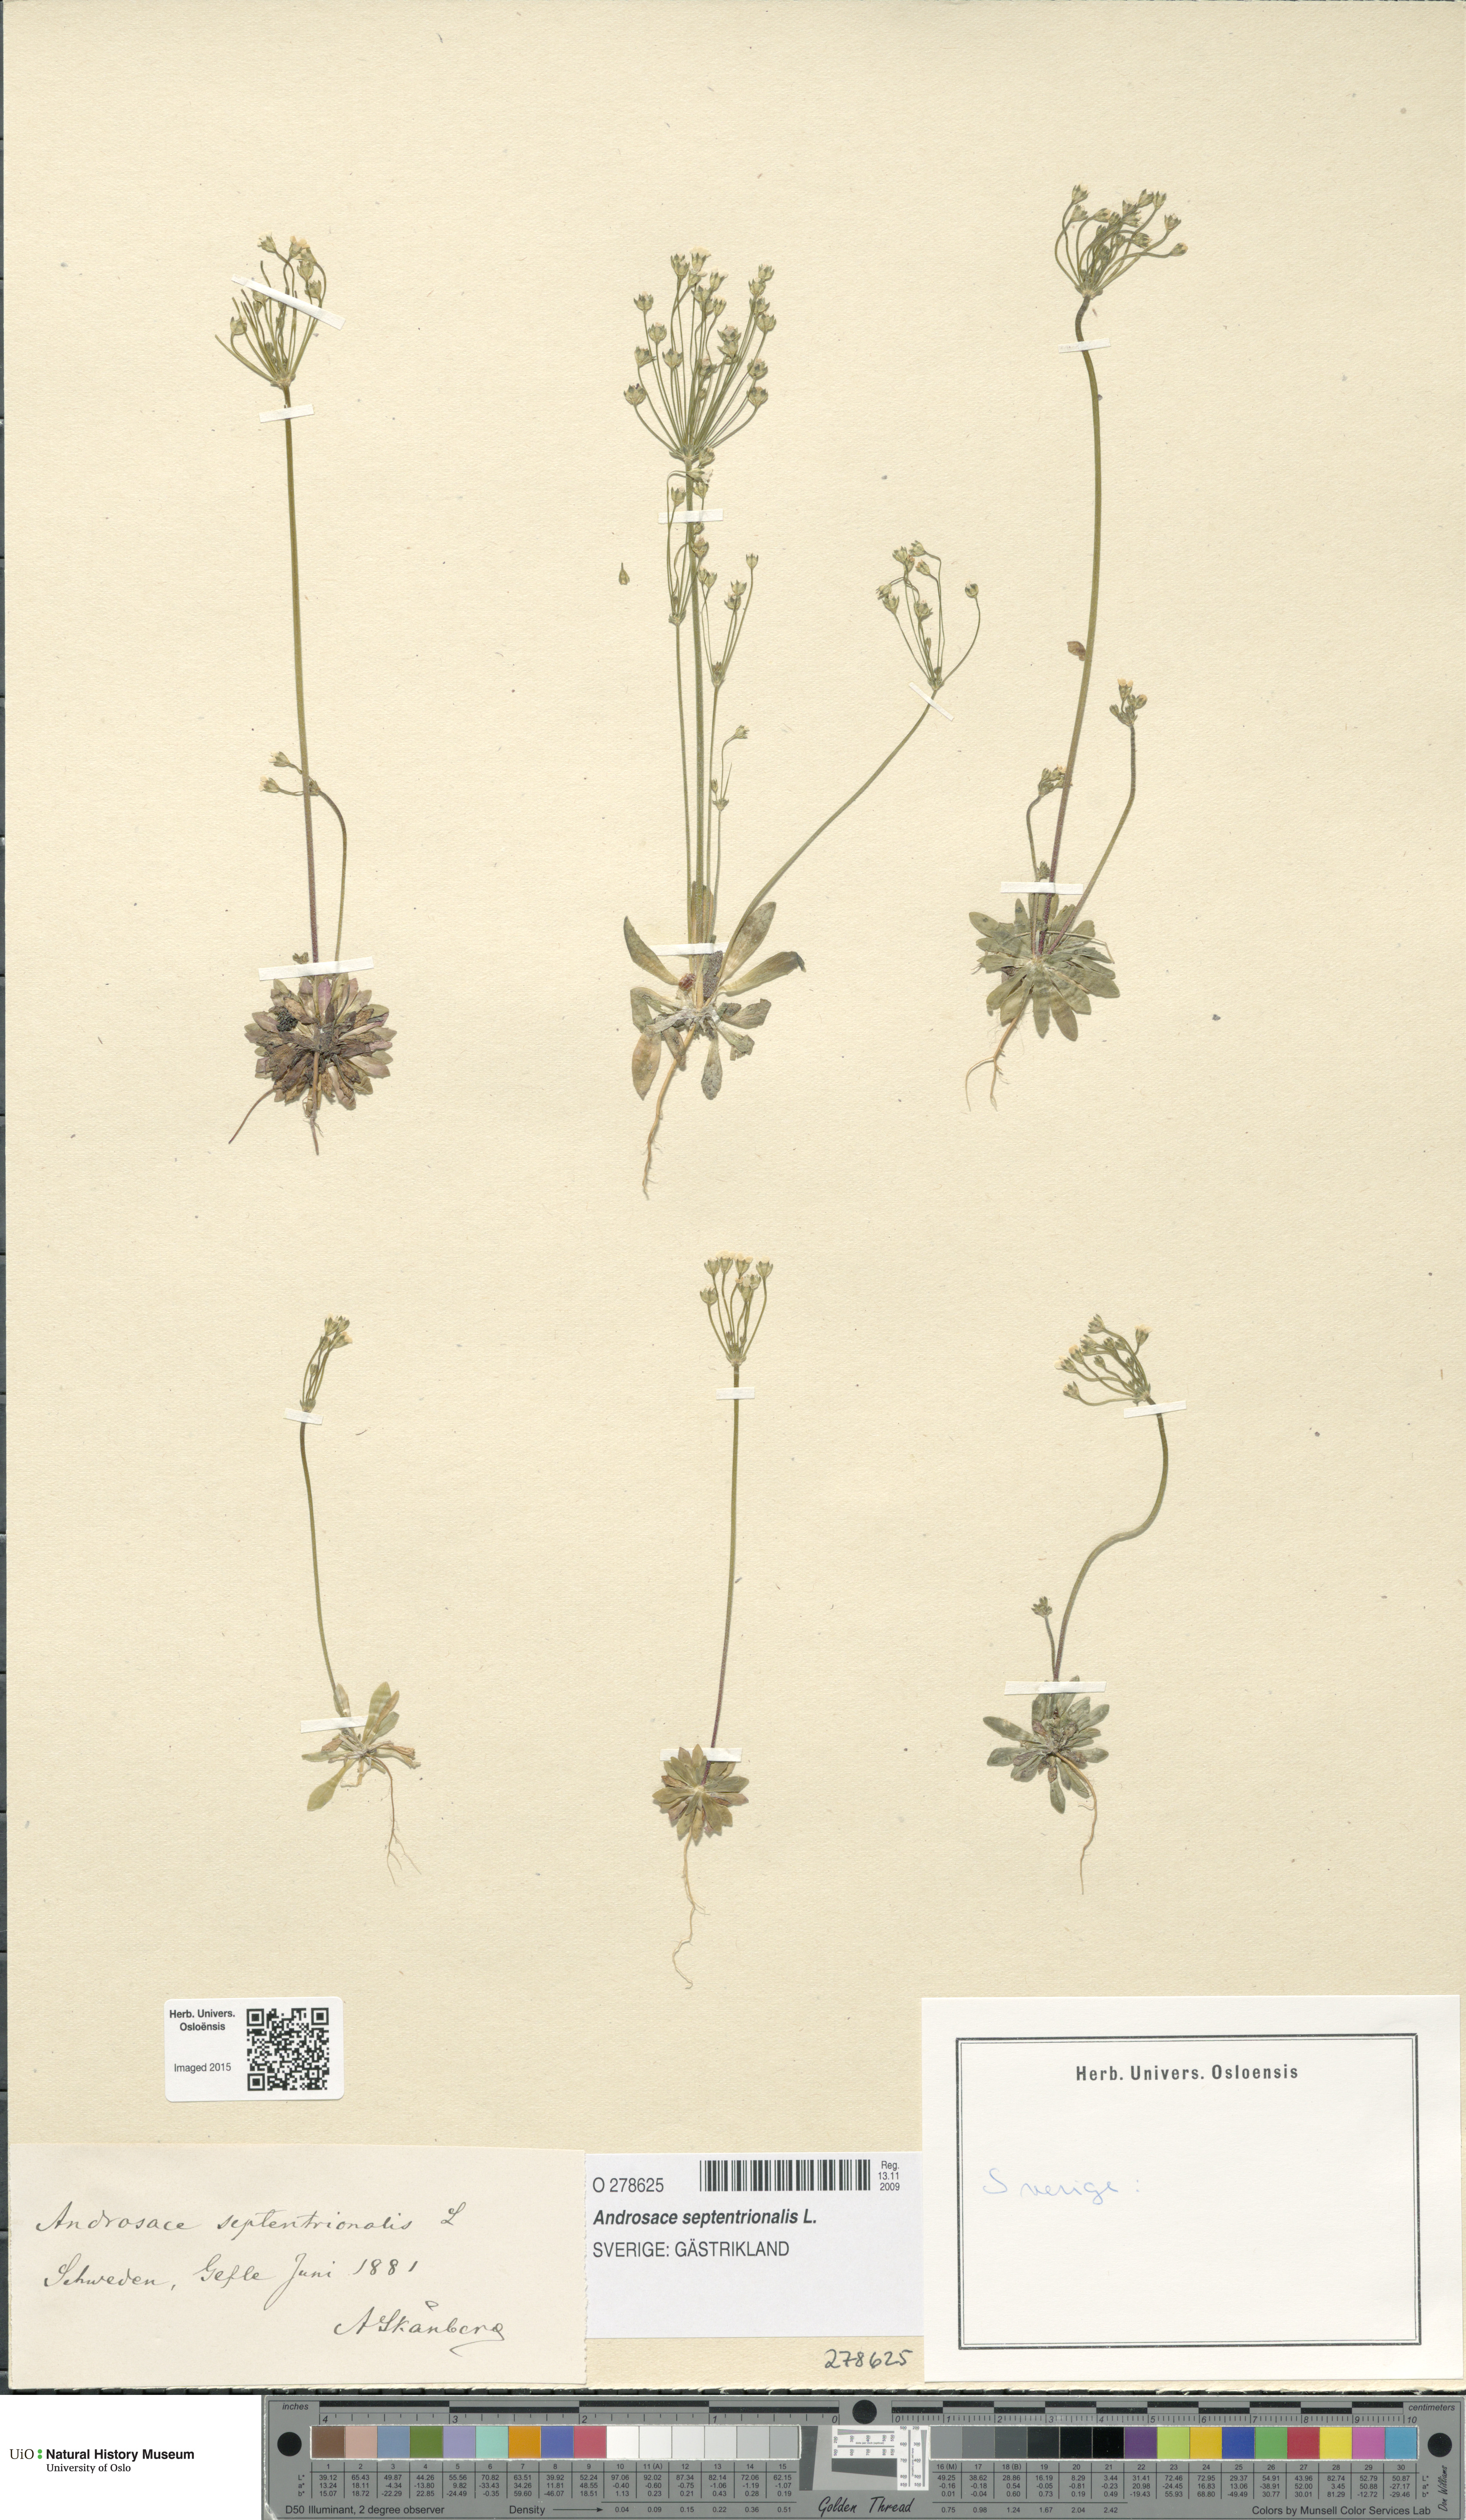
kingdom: Plantae
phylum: Tracheophyta
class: Magnoliopsida
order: Ericales
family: Primulaceae
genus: Androsace
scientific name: Androsace septentrionalis
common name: Hairy northern fairy-candelabra
